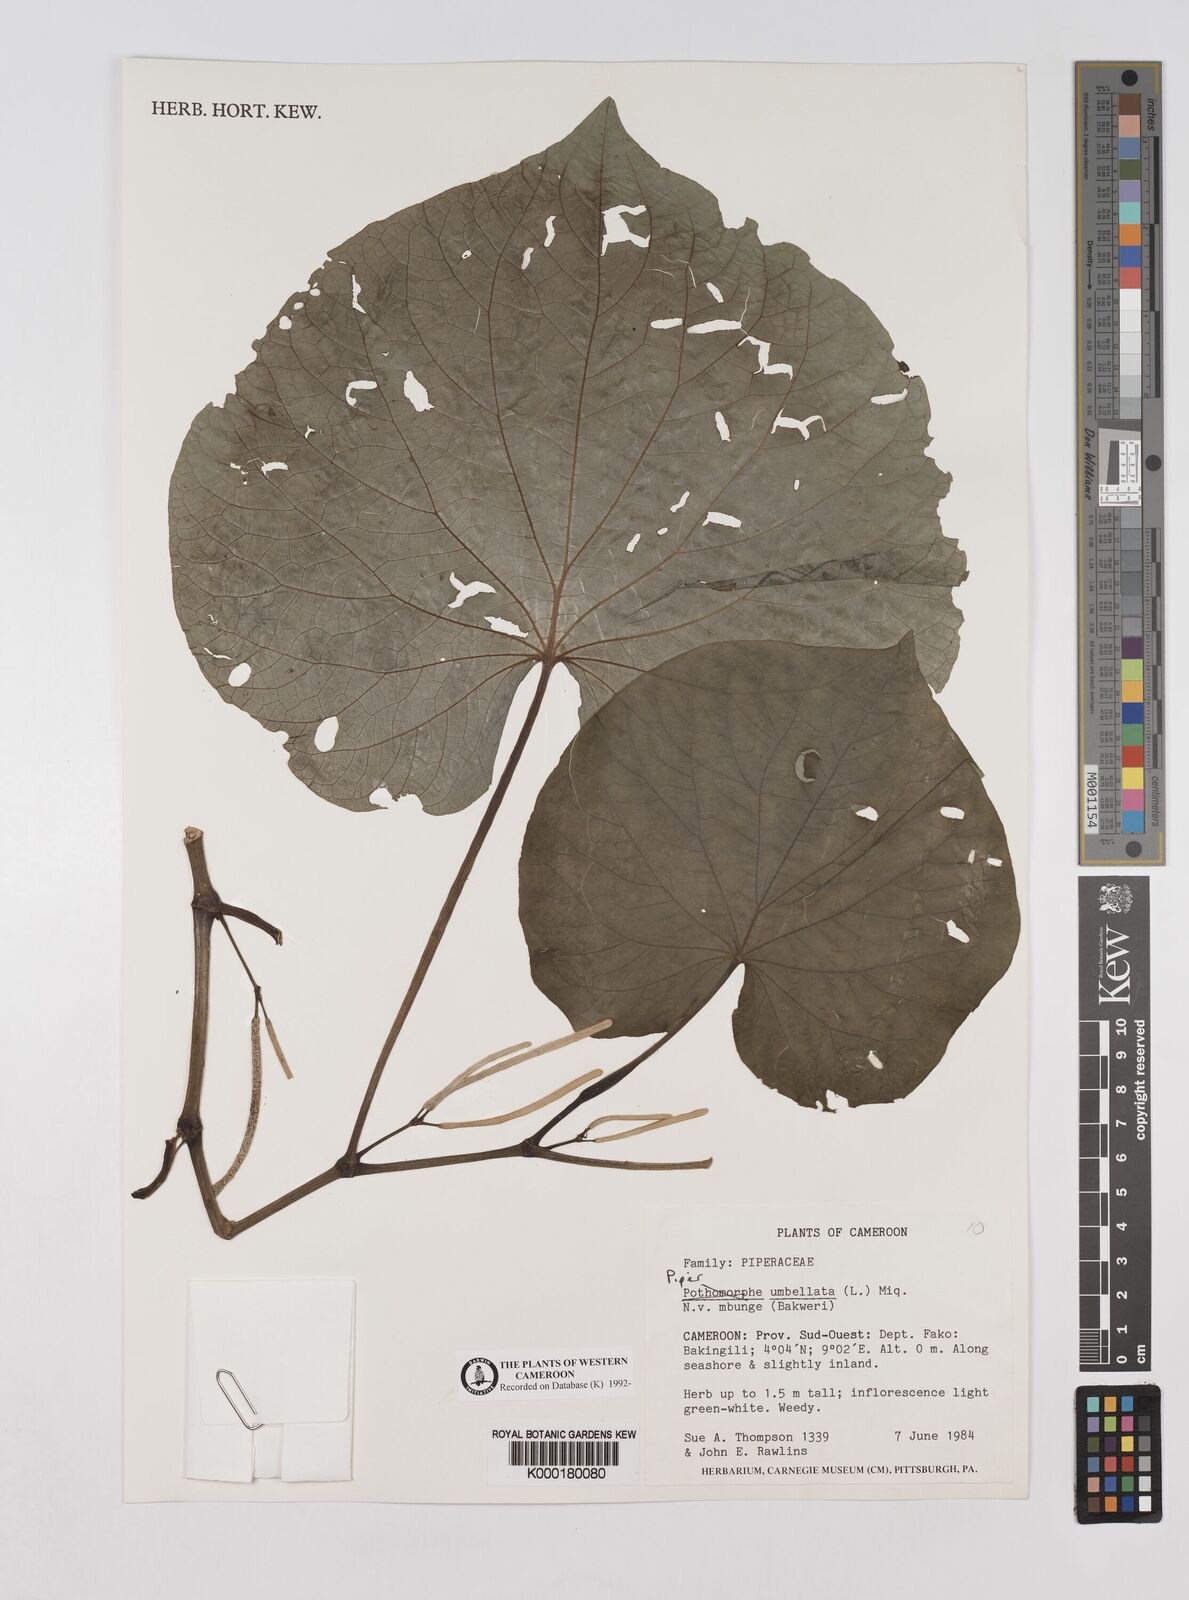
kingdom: Plantae
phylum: Tracheophyta
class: Magnoliopsida
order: Piperales
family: Piperaceae
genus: Piper
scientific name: Piper umbellatum
